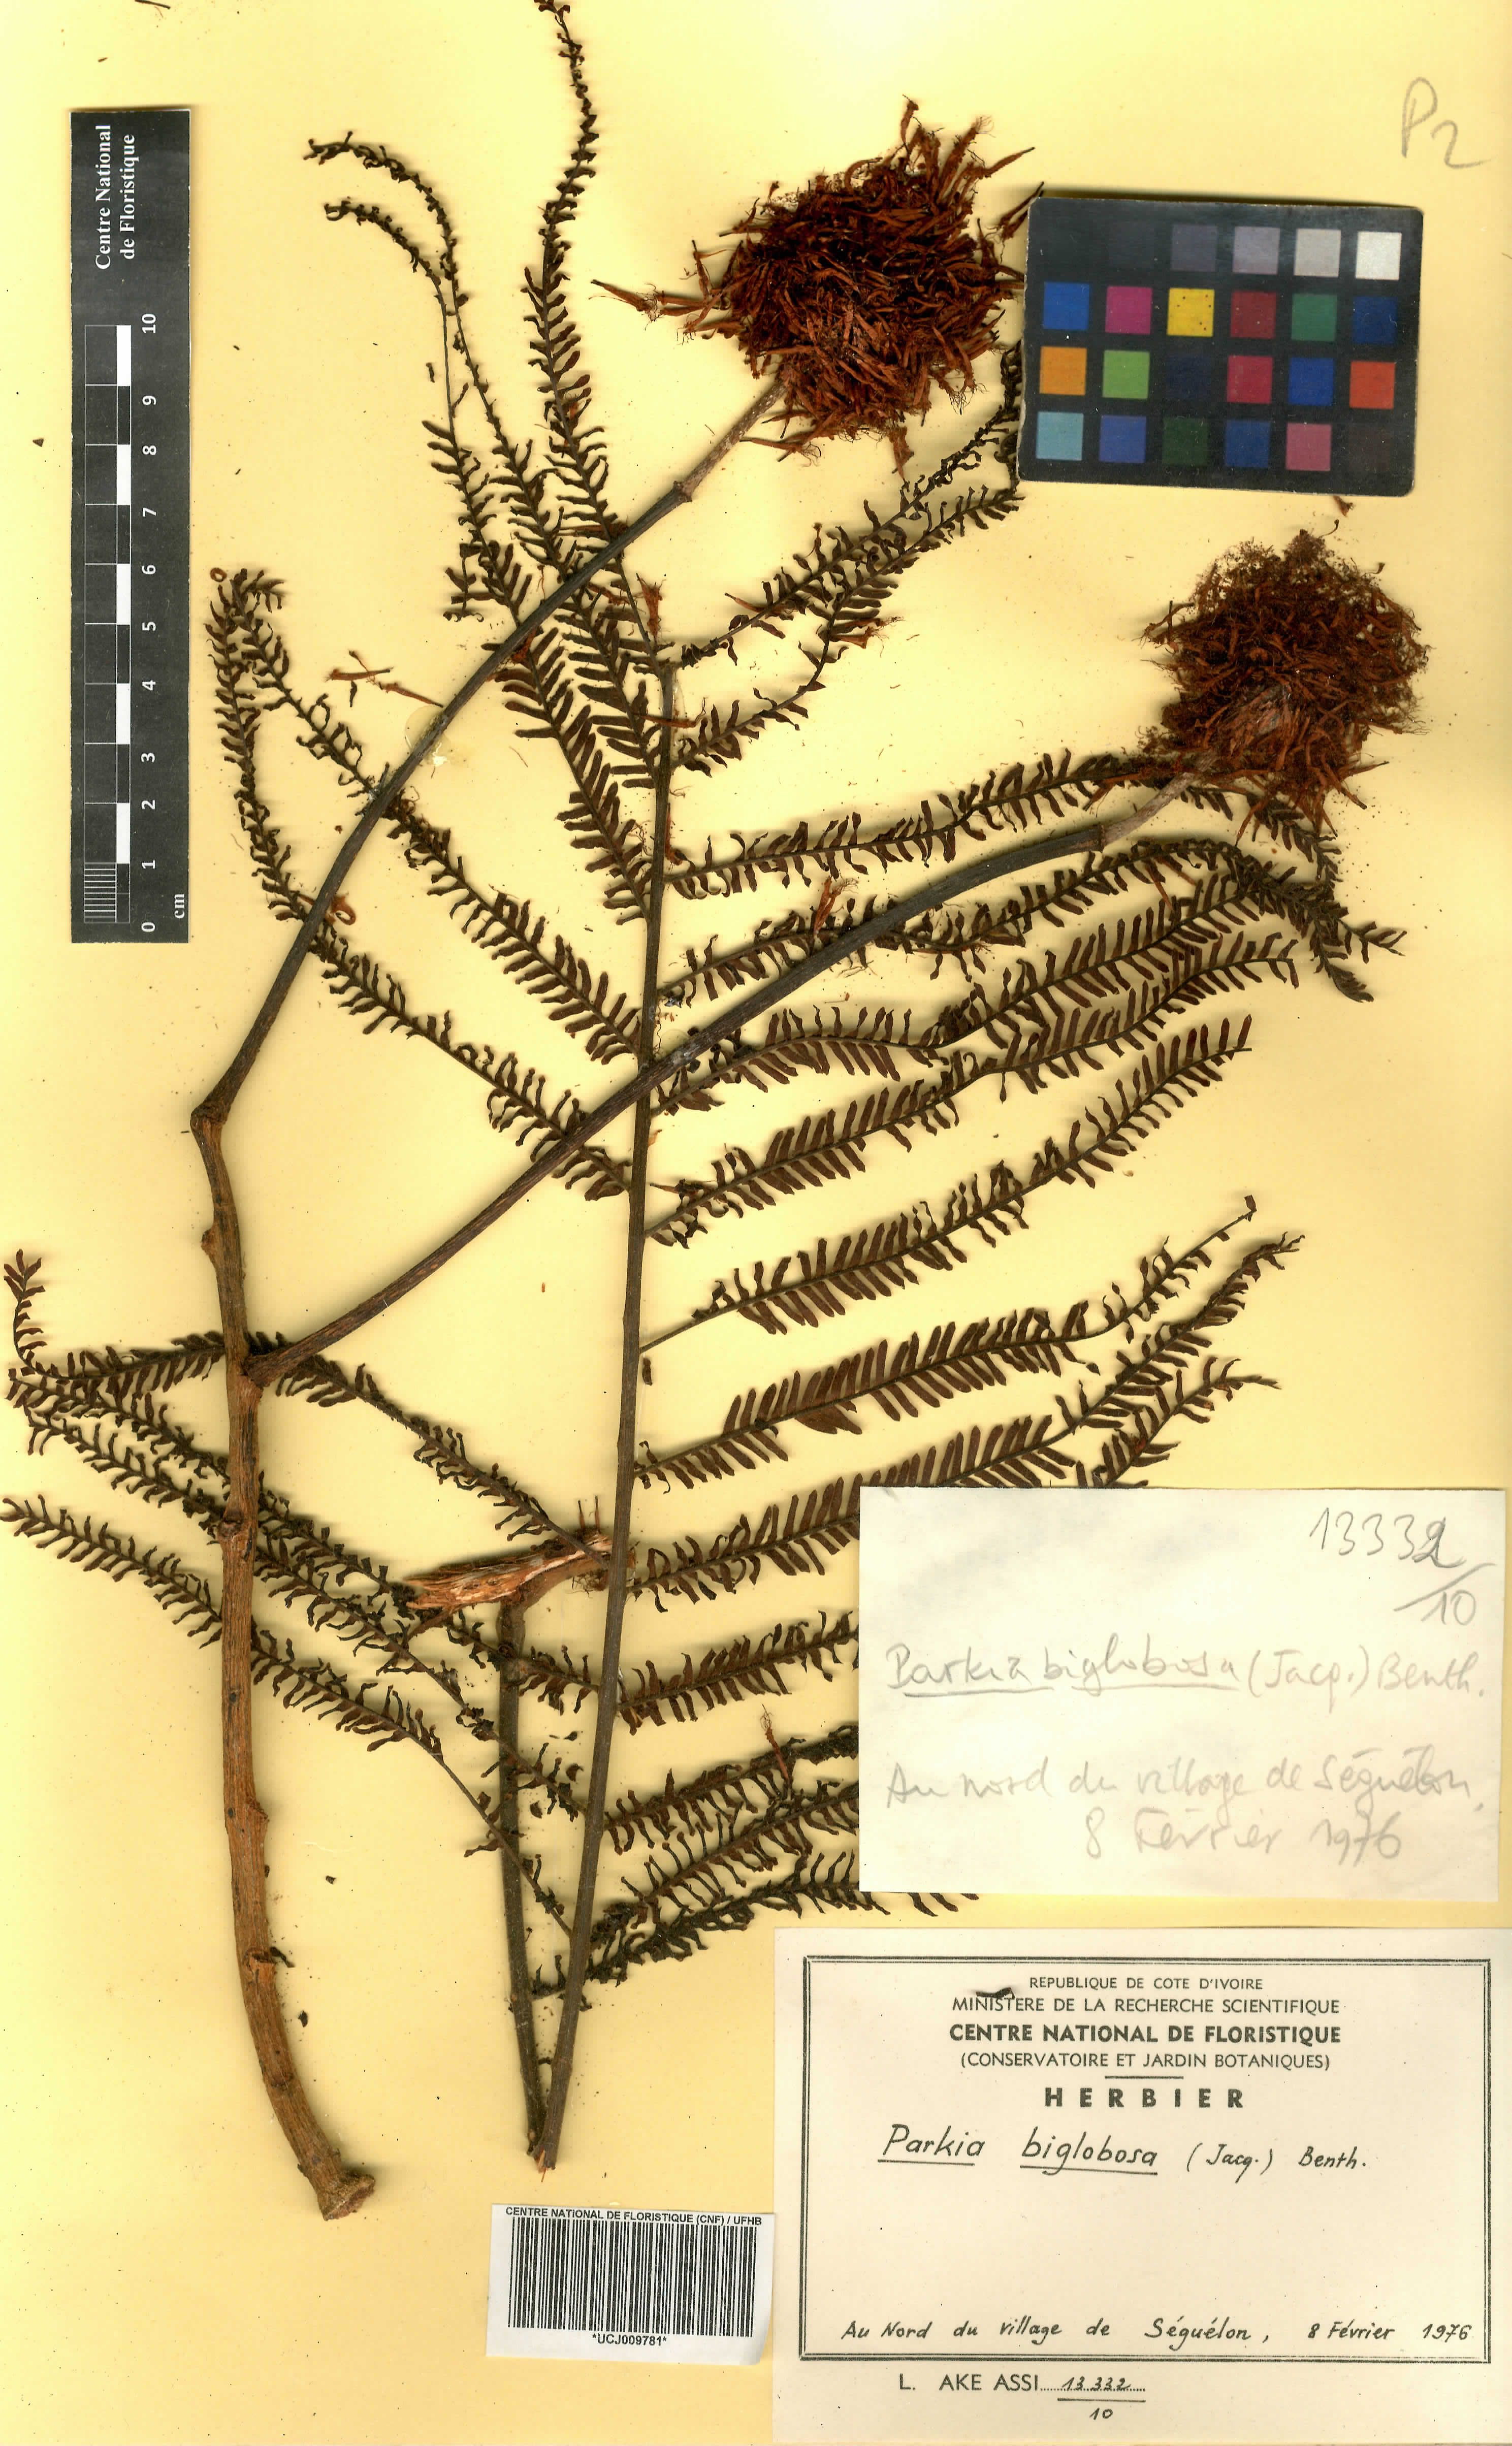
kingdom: Plantae
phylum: Tracheophyta
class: Magnoliopsida
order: Fabales
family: Fabaceae
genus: Parkia
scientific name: Parkia timoriana
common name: Legume
